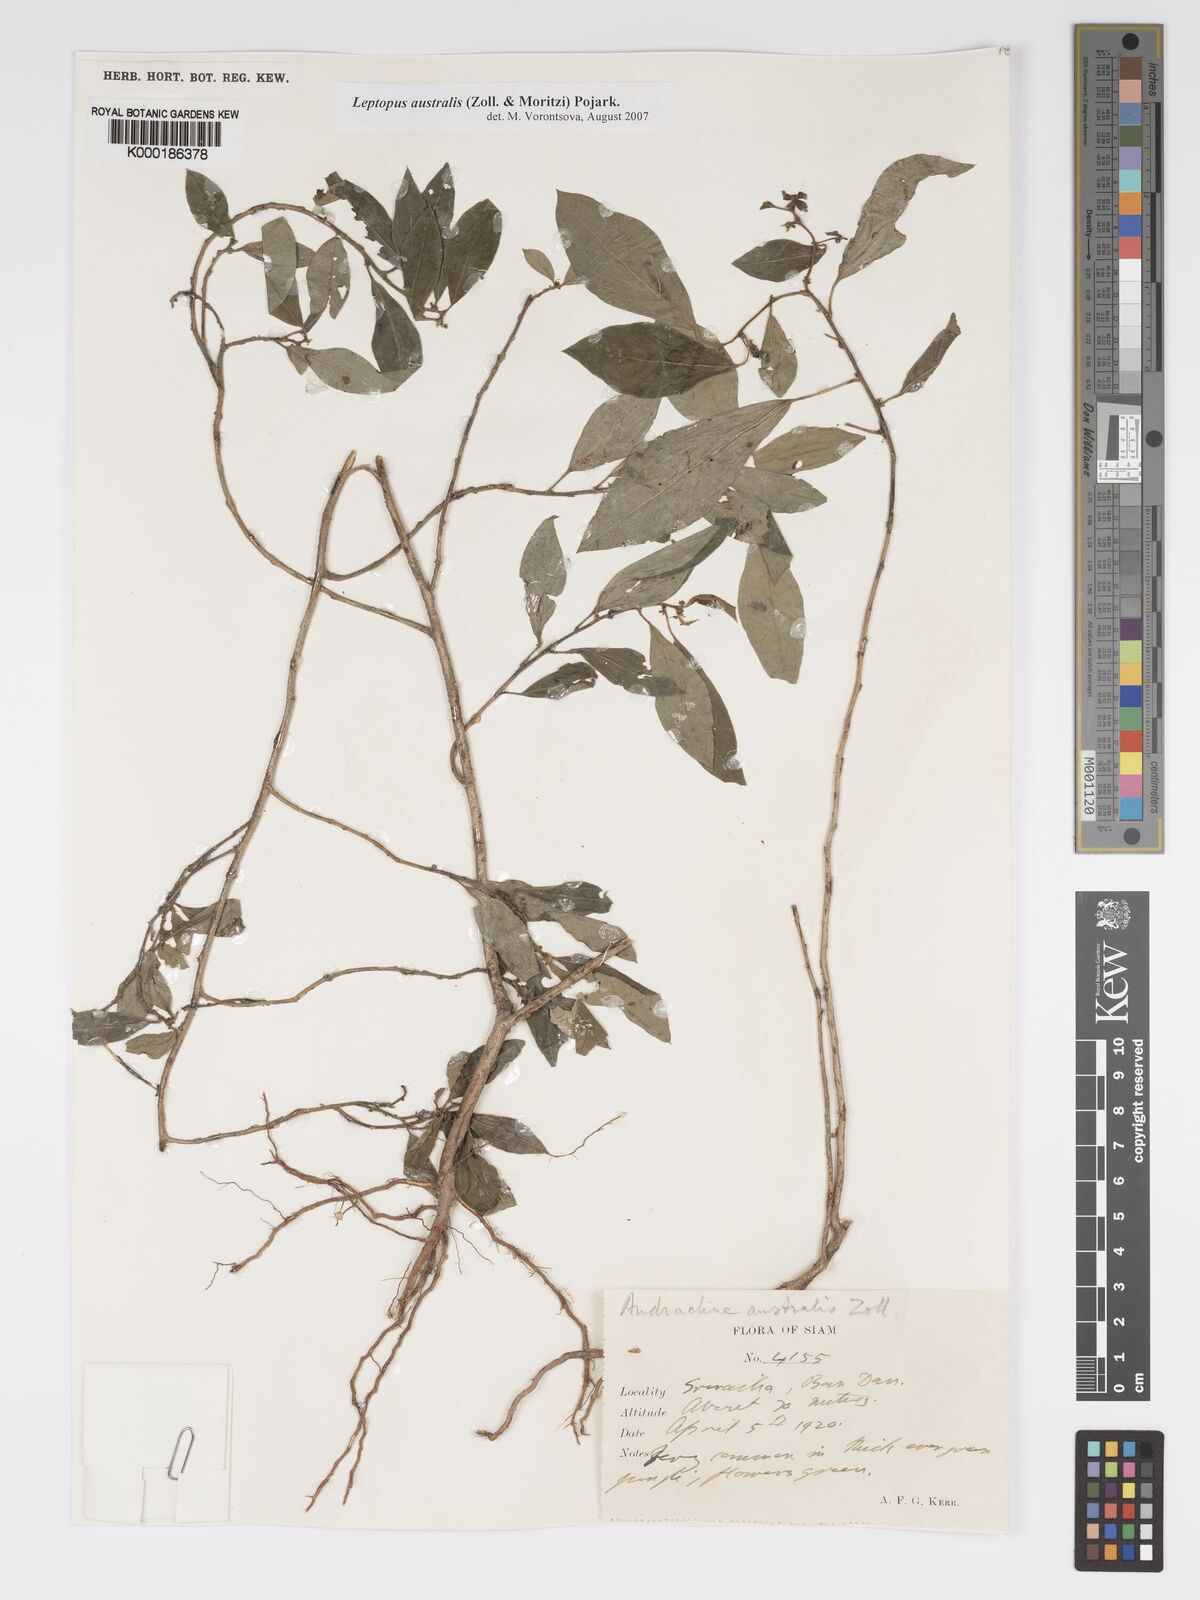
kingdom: Plantae
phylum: Tracheophyta
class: Magnoliopsida
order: Malpighiales
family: Phyllanthaceae
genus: Andrachne
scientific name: Andrachne
